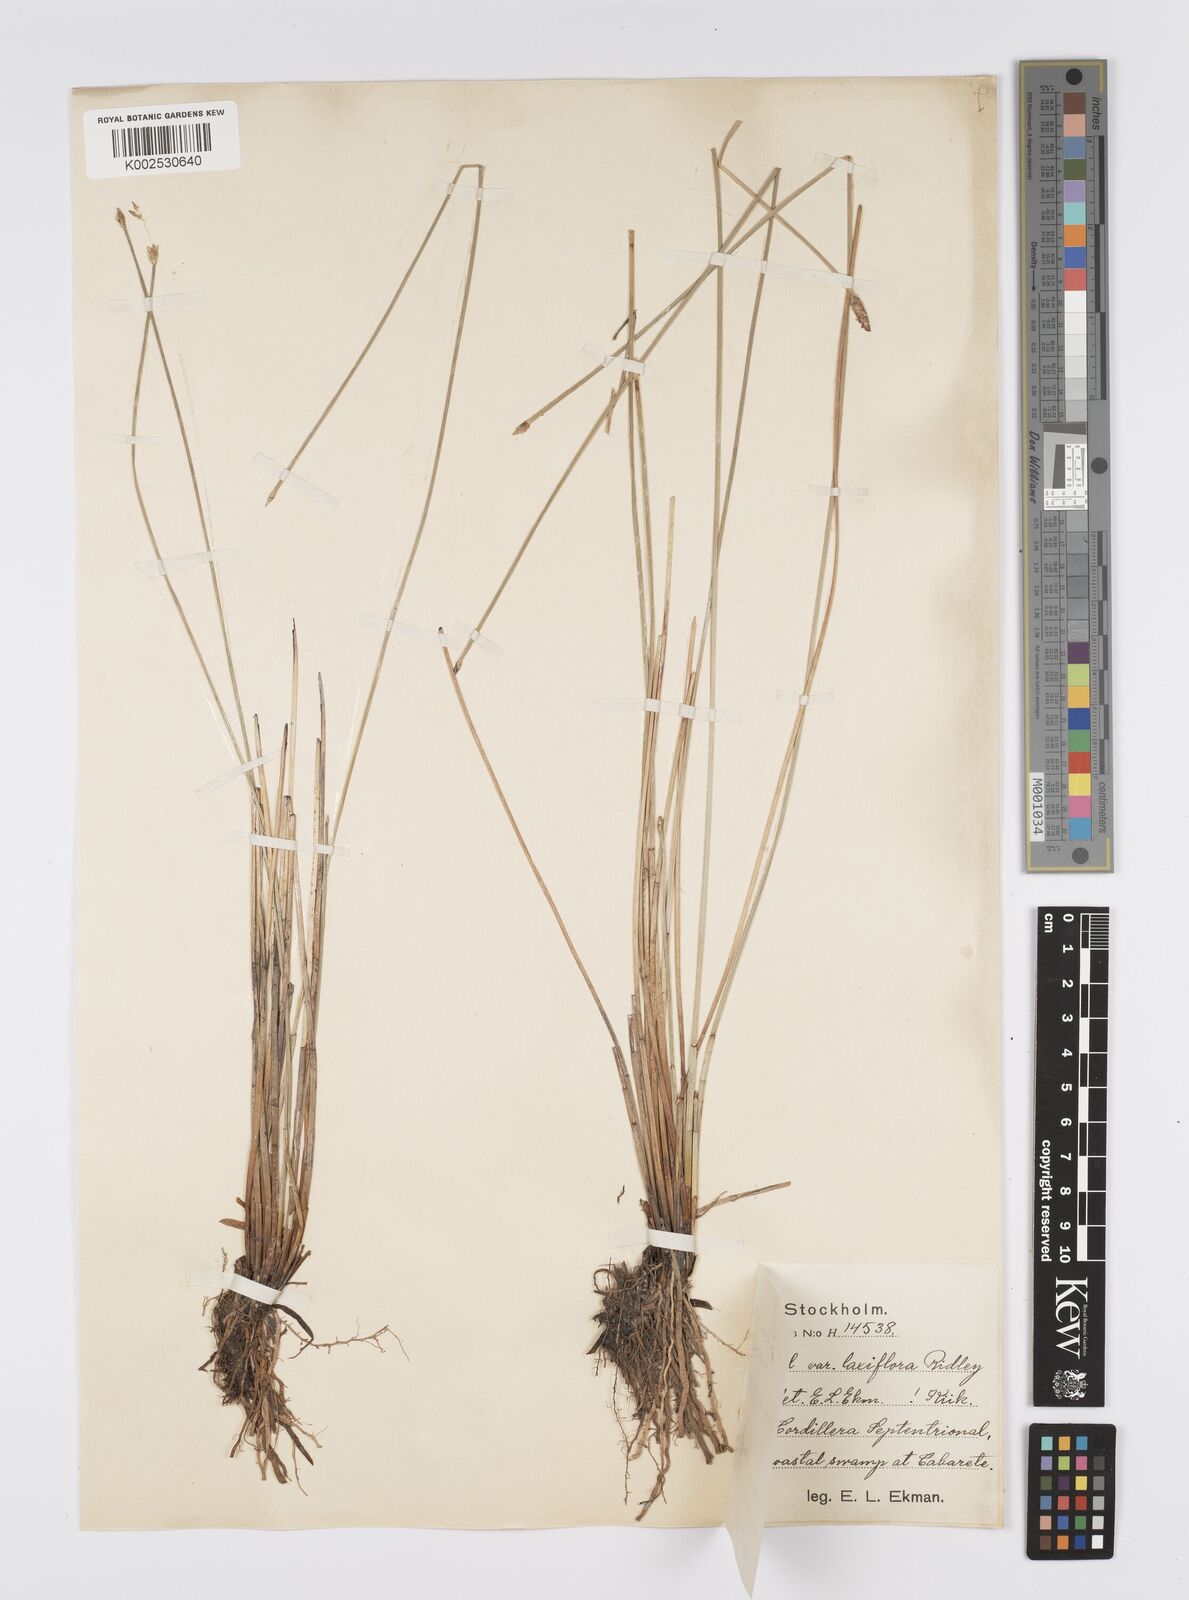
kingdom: Plantae
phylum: Tracheophyta
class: Liliopsida
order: Poales
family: Cyperaceae
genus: Eleocharis
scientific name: Eleocharis variegata
